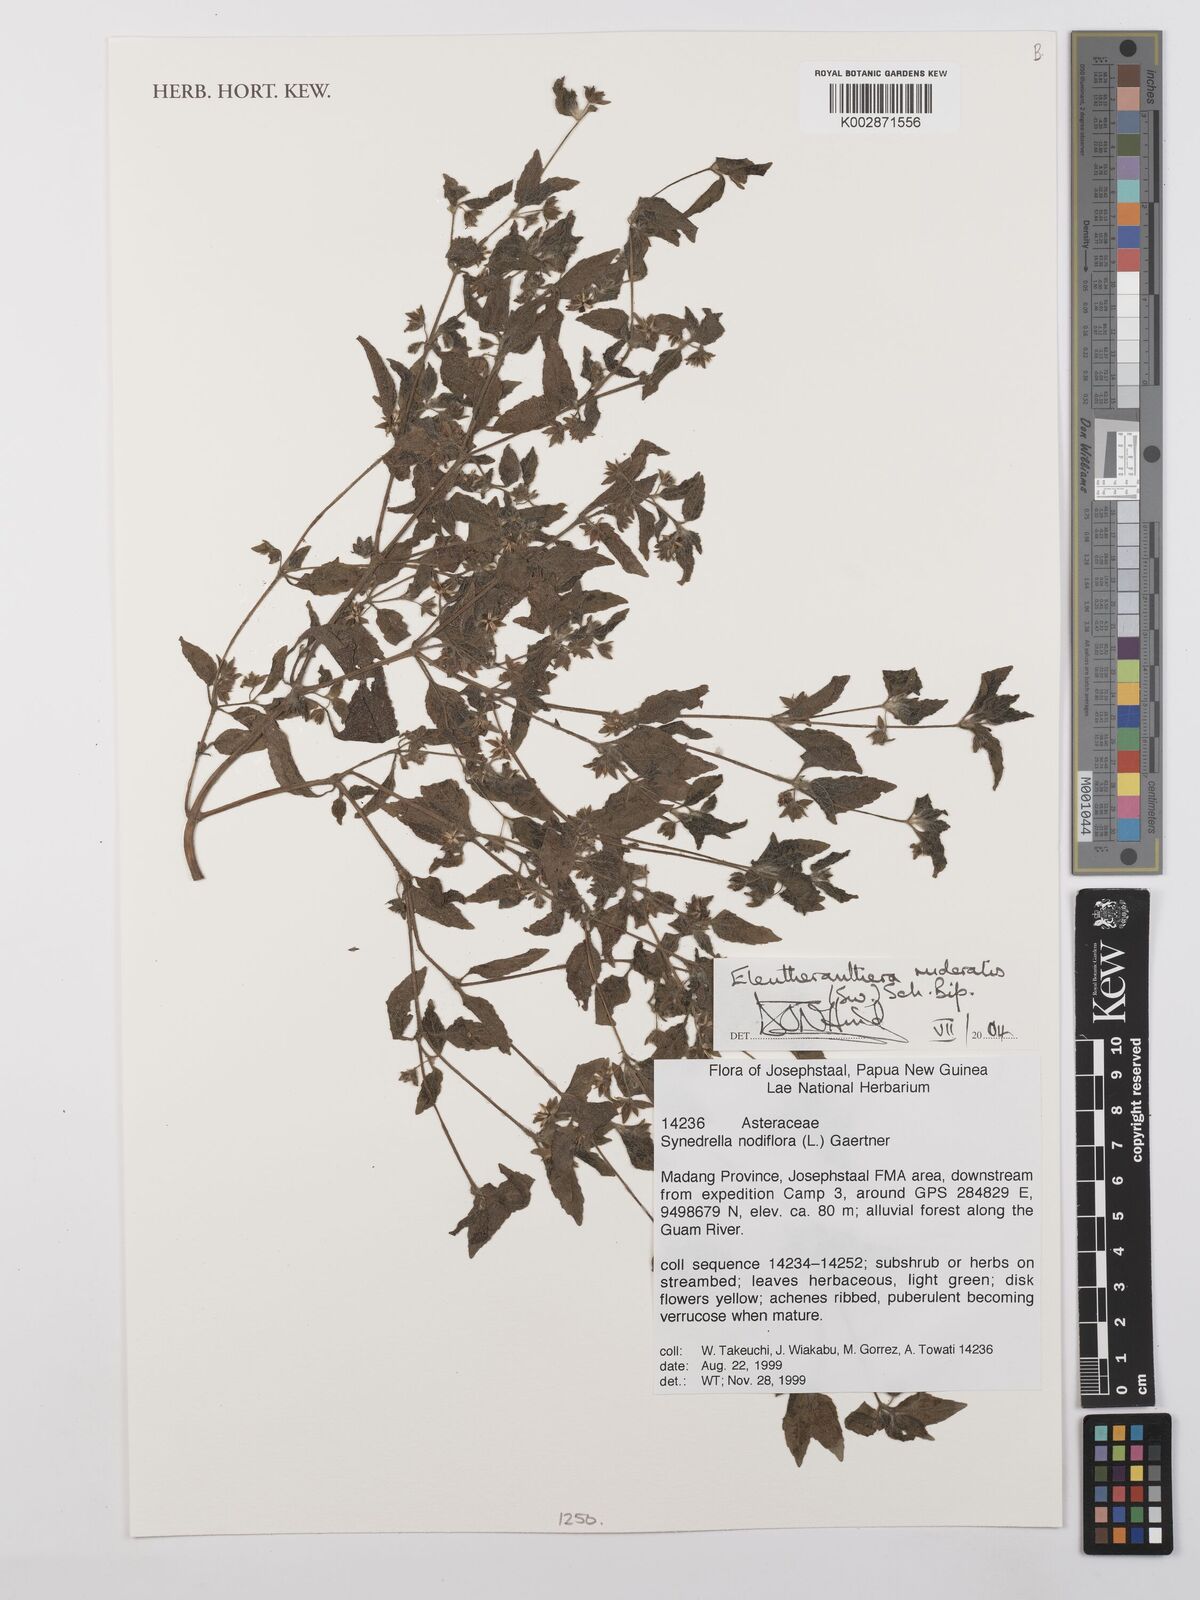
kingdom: Plantae
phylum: Tracheophyta
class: Magnoliopsida
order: Asterales
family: Asteraceae
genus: Eleutheranthera
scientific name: Eleutheranthera ruderalis
